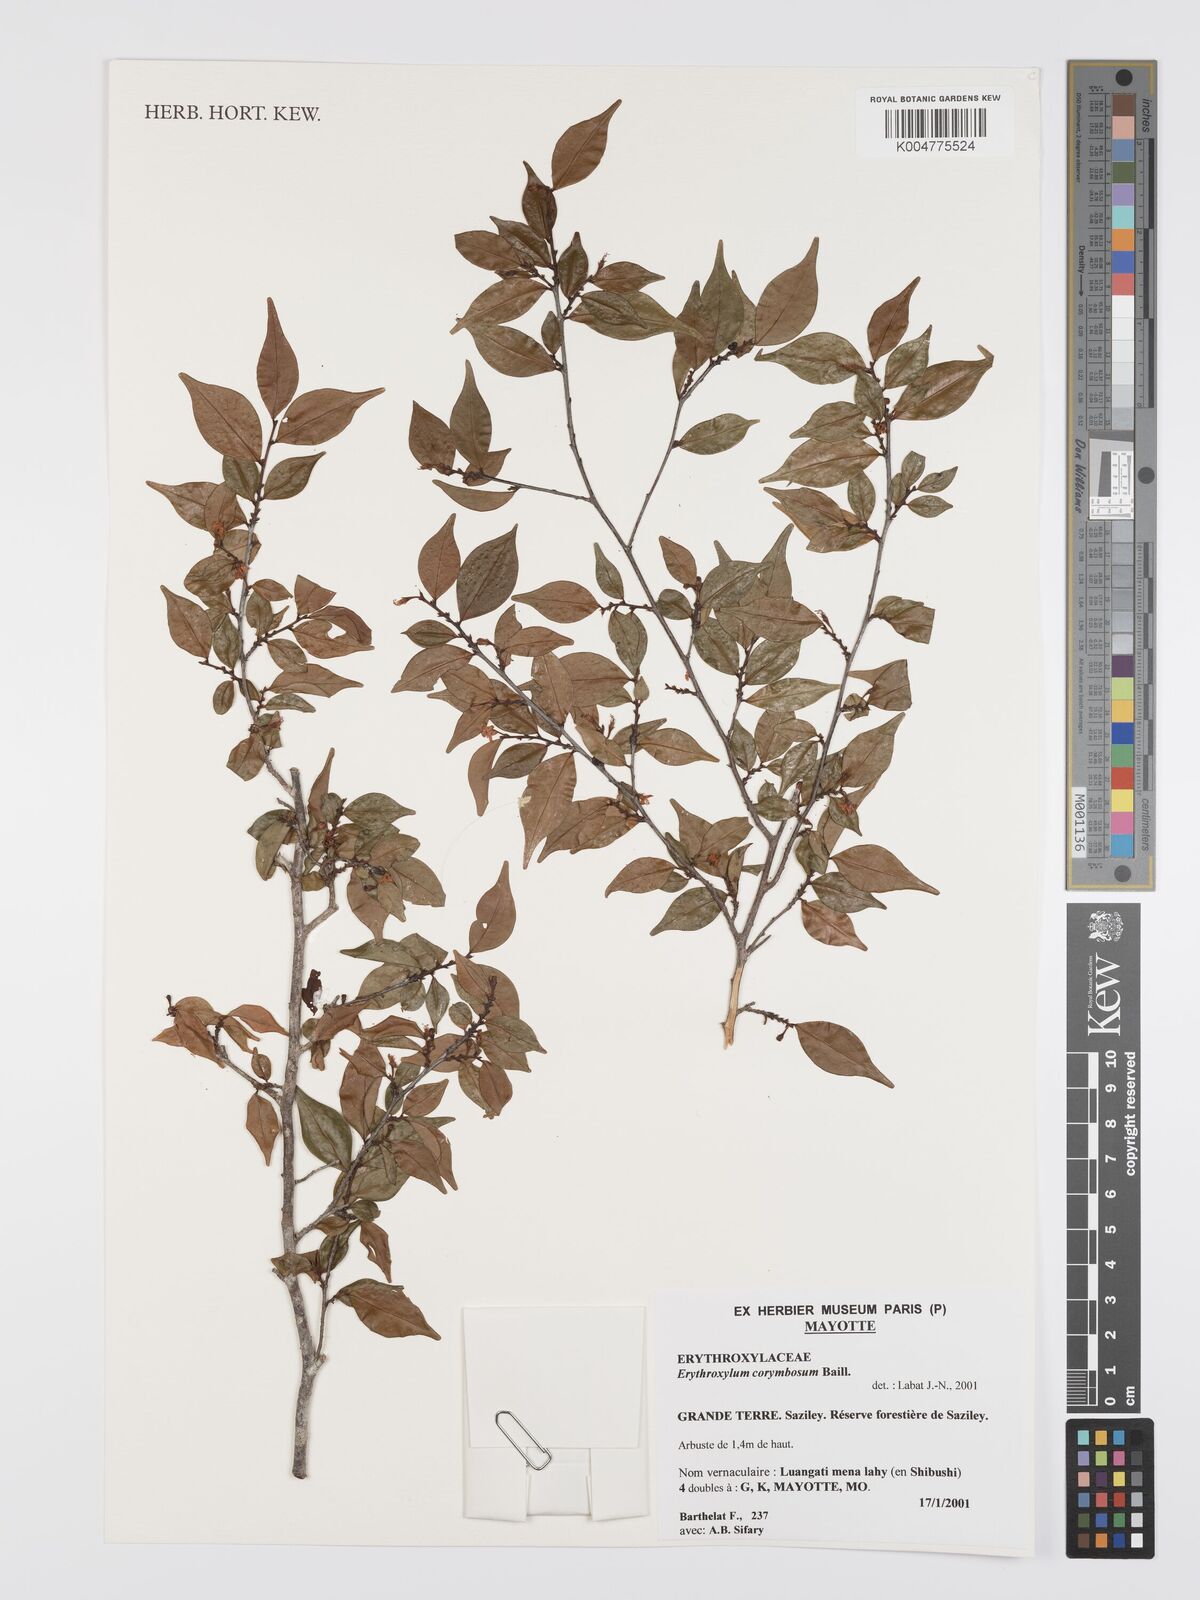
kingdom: Plantae
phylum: Tracheophyta
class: Magnoliopsida
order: Malpighiales
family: Erythroxylaceae
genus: Erythroxylum
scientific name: Erythroxylum corymbosum
